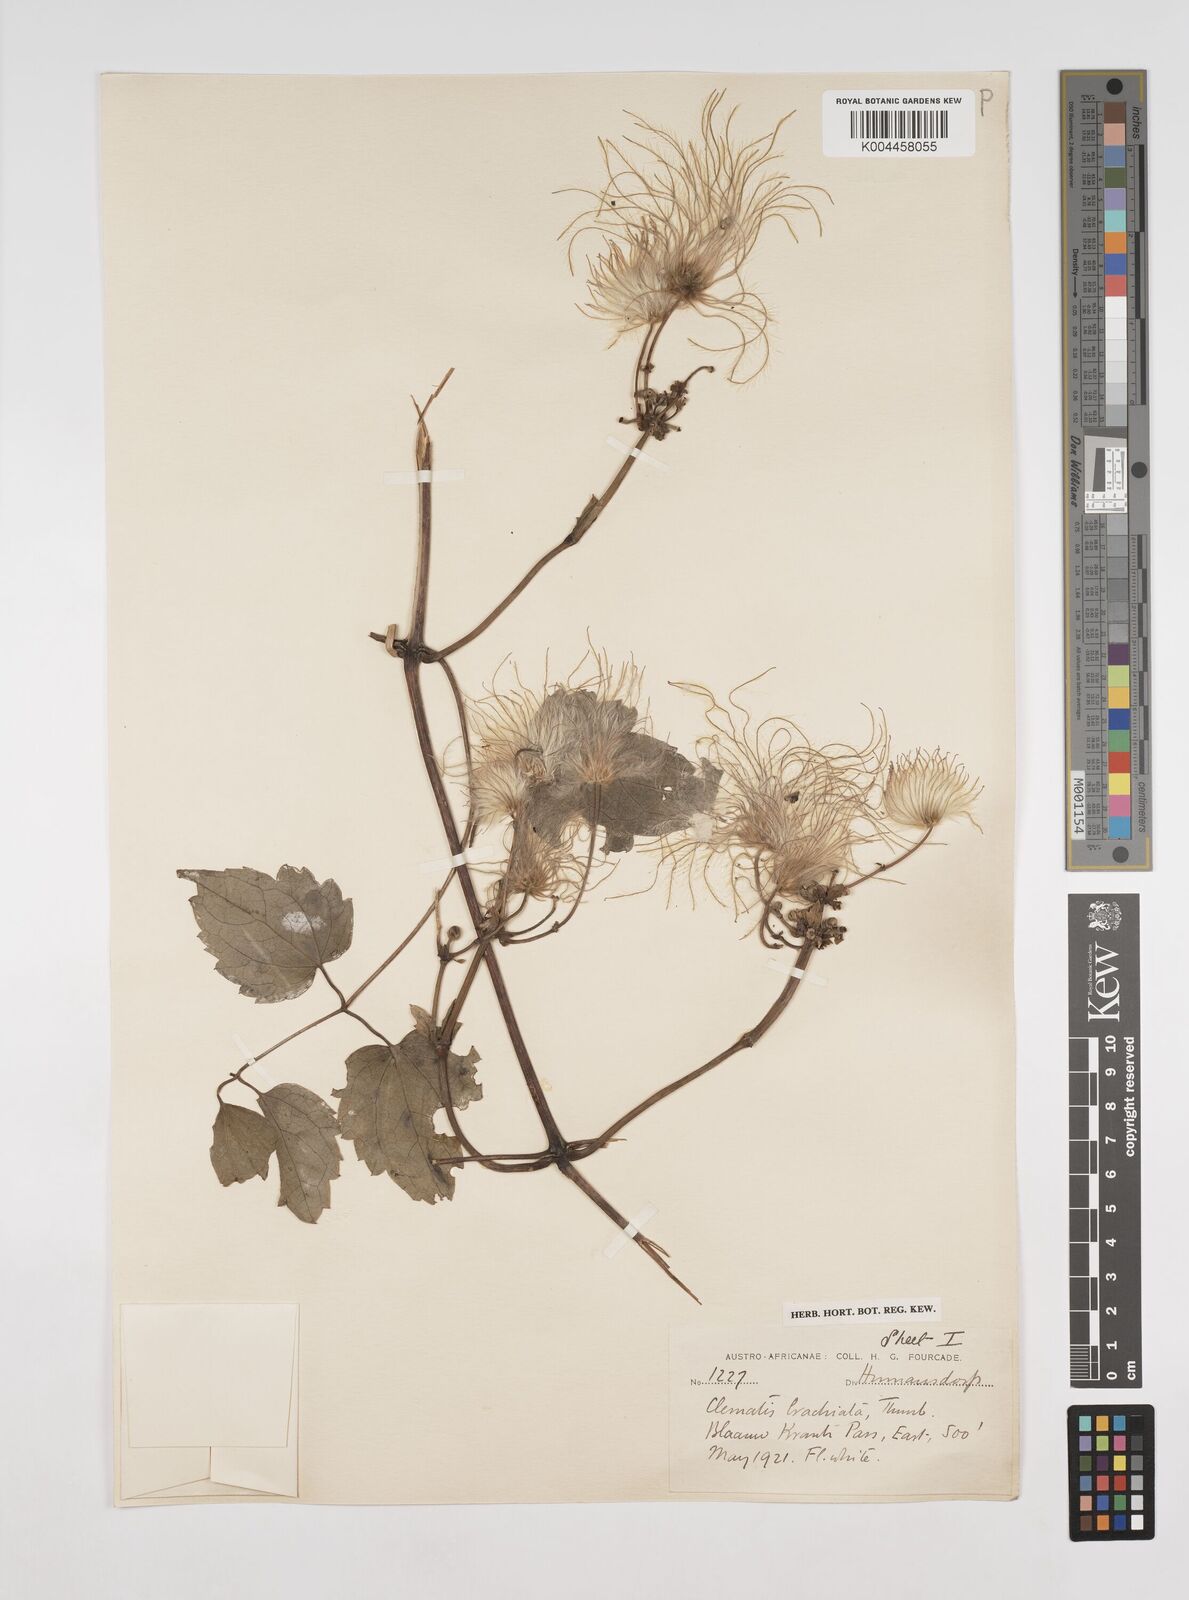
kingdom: Plantae
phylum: Tracheophyta
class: Magnoliopsida
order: Ranunculales
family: Ranunculaceae
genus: Clematis
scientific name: Clematis brachiata
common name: Traveler's-joy
